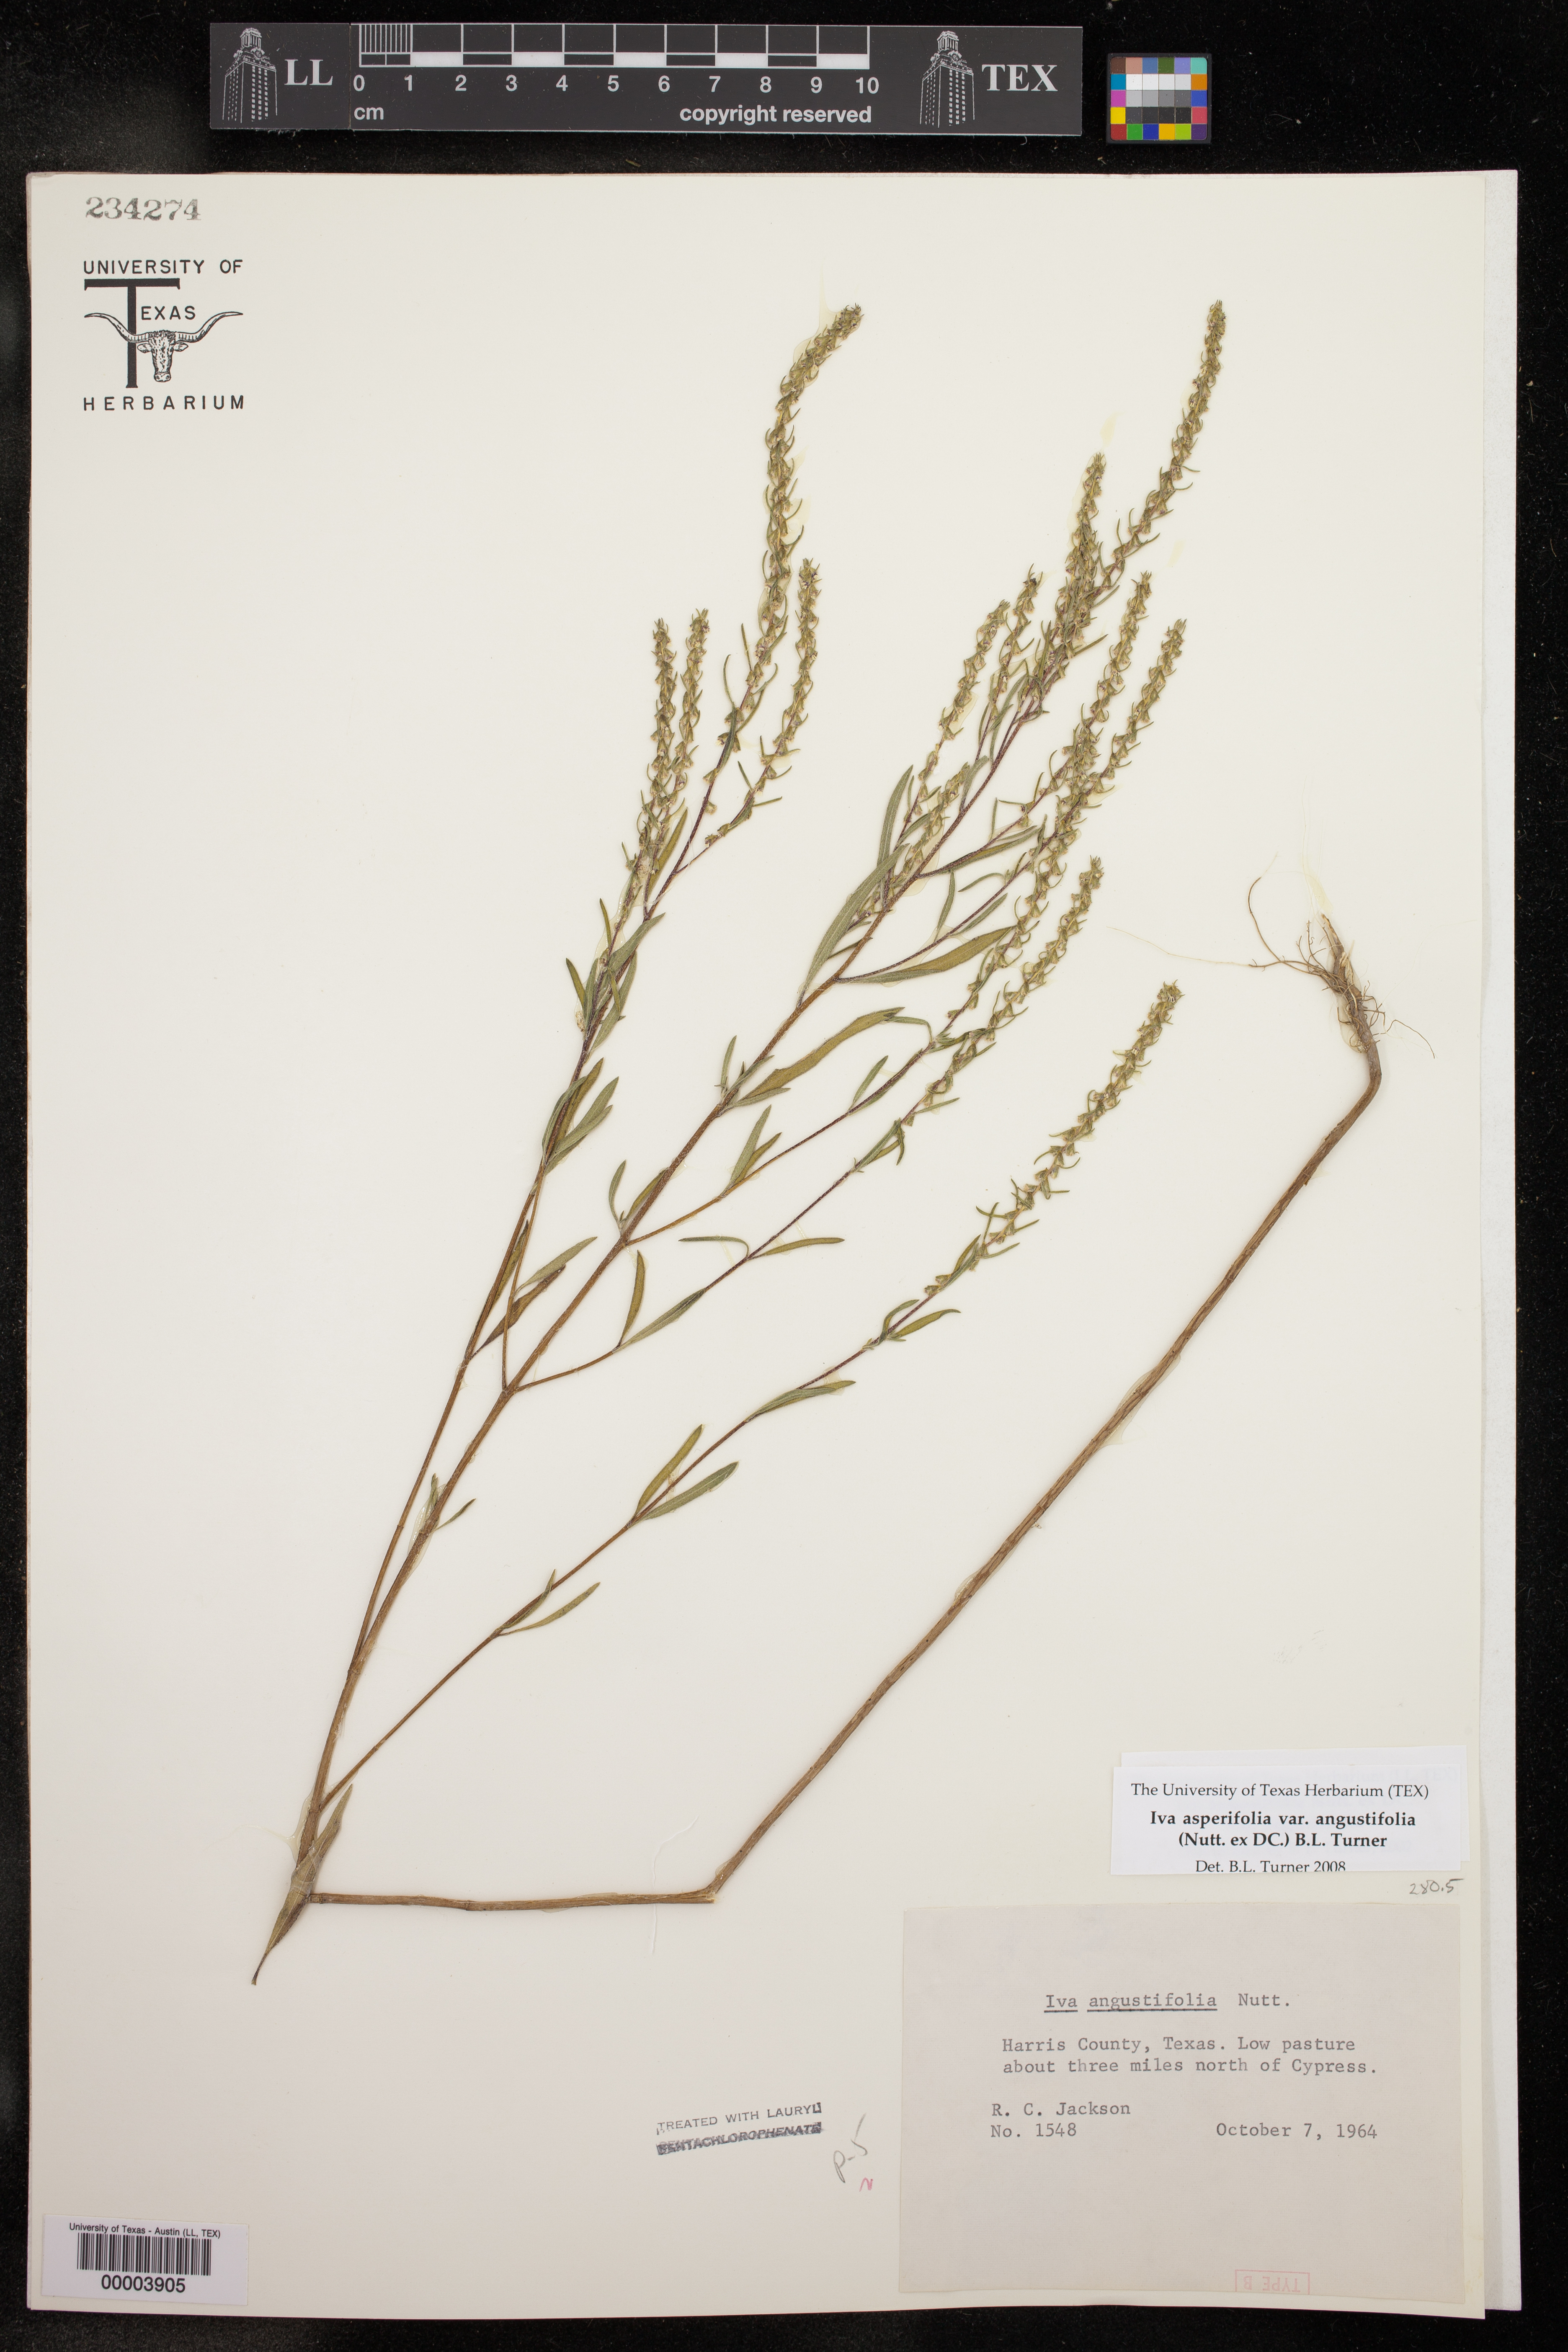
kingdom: Plantae
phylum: Tracheophyta
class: Magnoliopsida
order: Asterales
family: Asteraceae
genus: Iva
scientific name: Iva asperifolia
